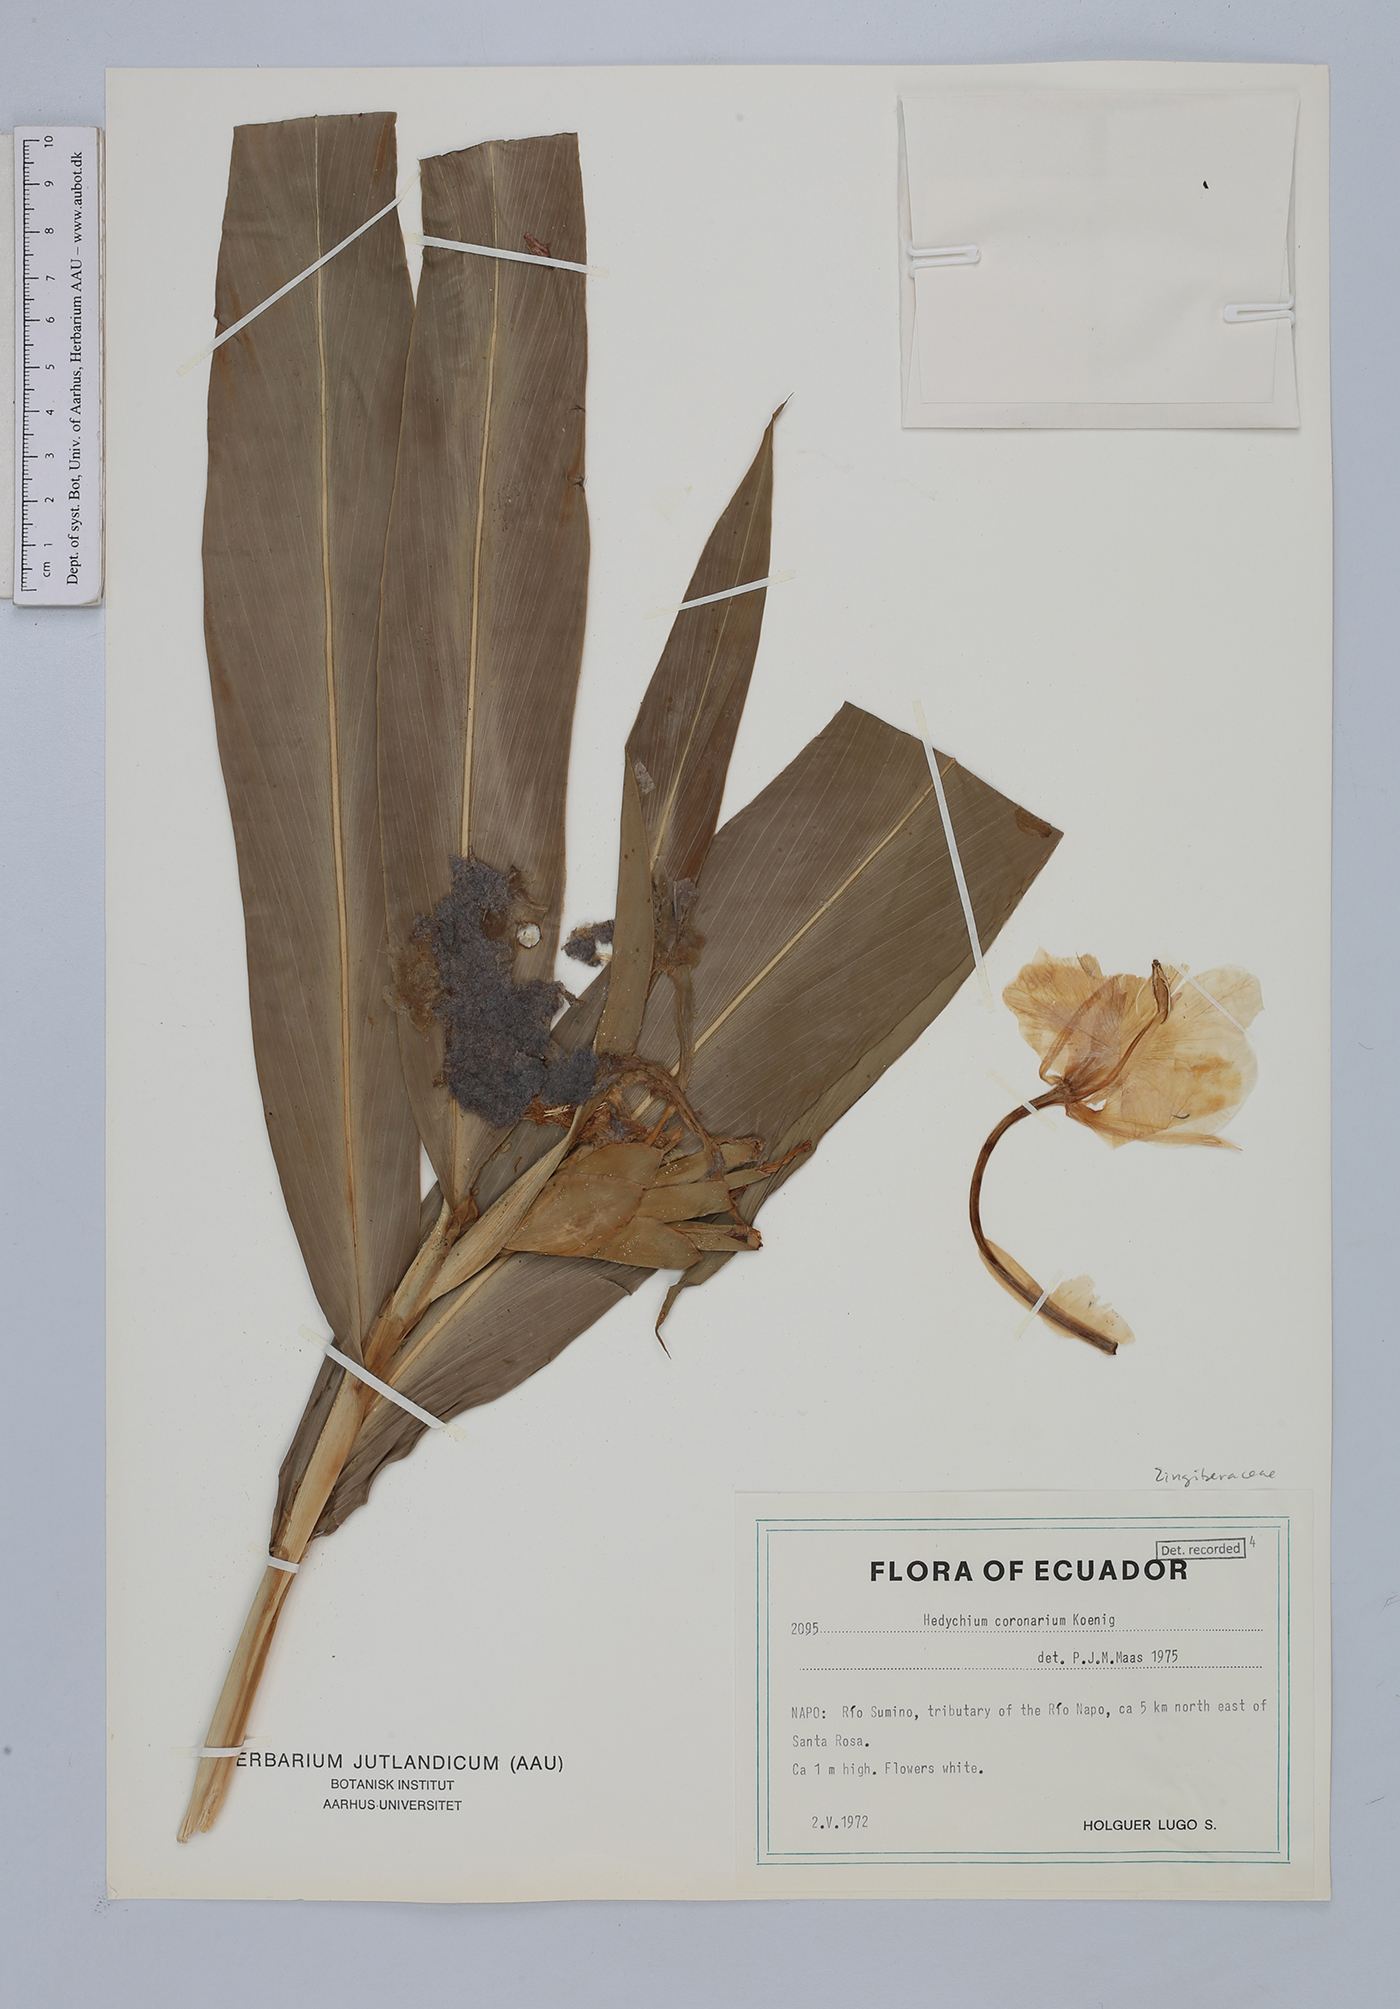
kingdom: Plantae
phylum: Tracheophyta
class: Liliopsida
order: Zingiberales
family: Zingiberaceae
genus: Hedychium
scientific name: Hedychium coronarium
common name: White garland-lily
